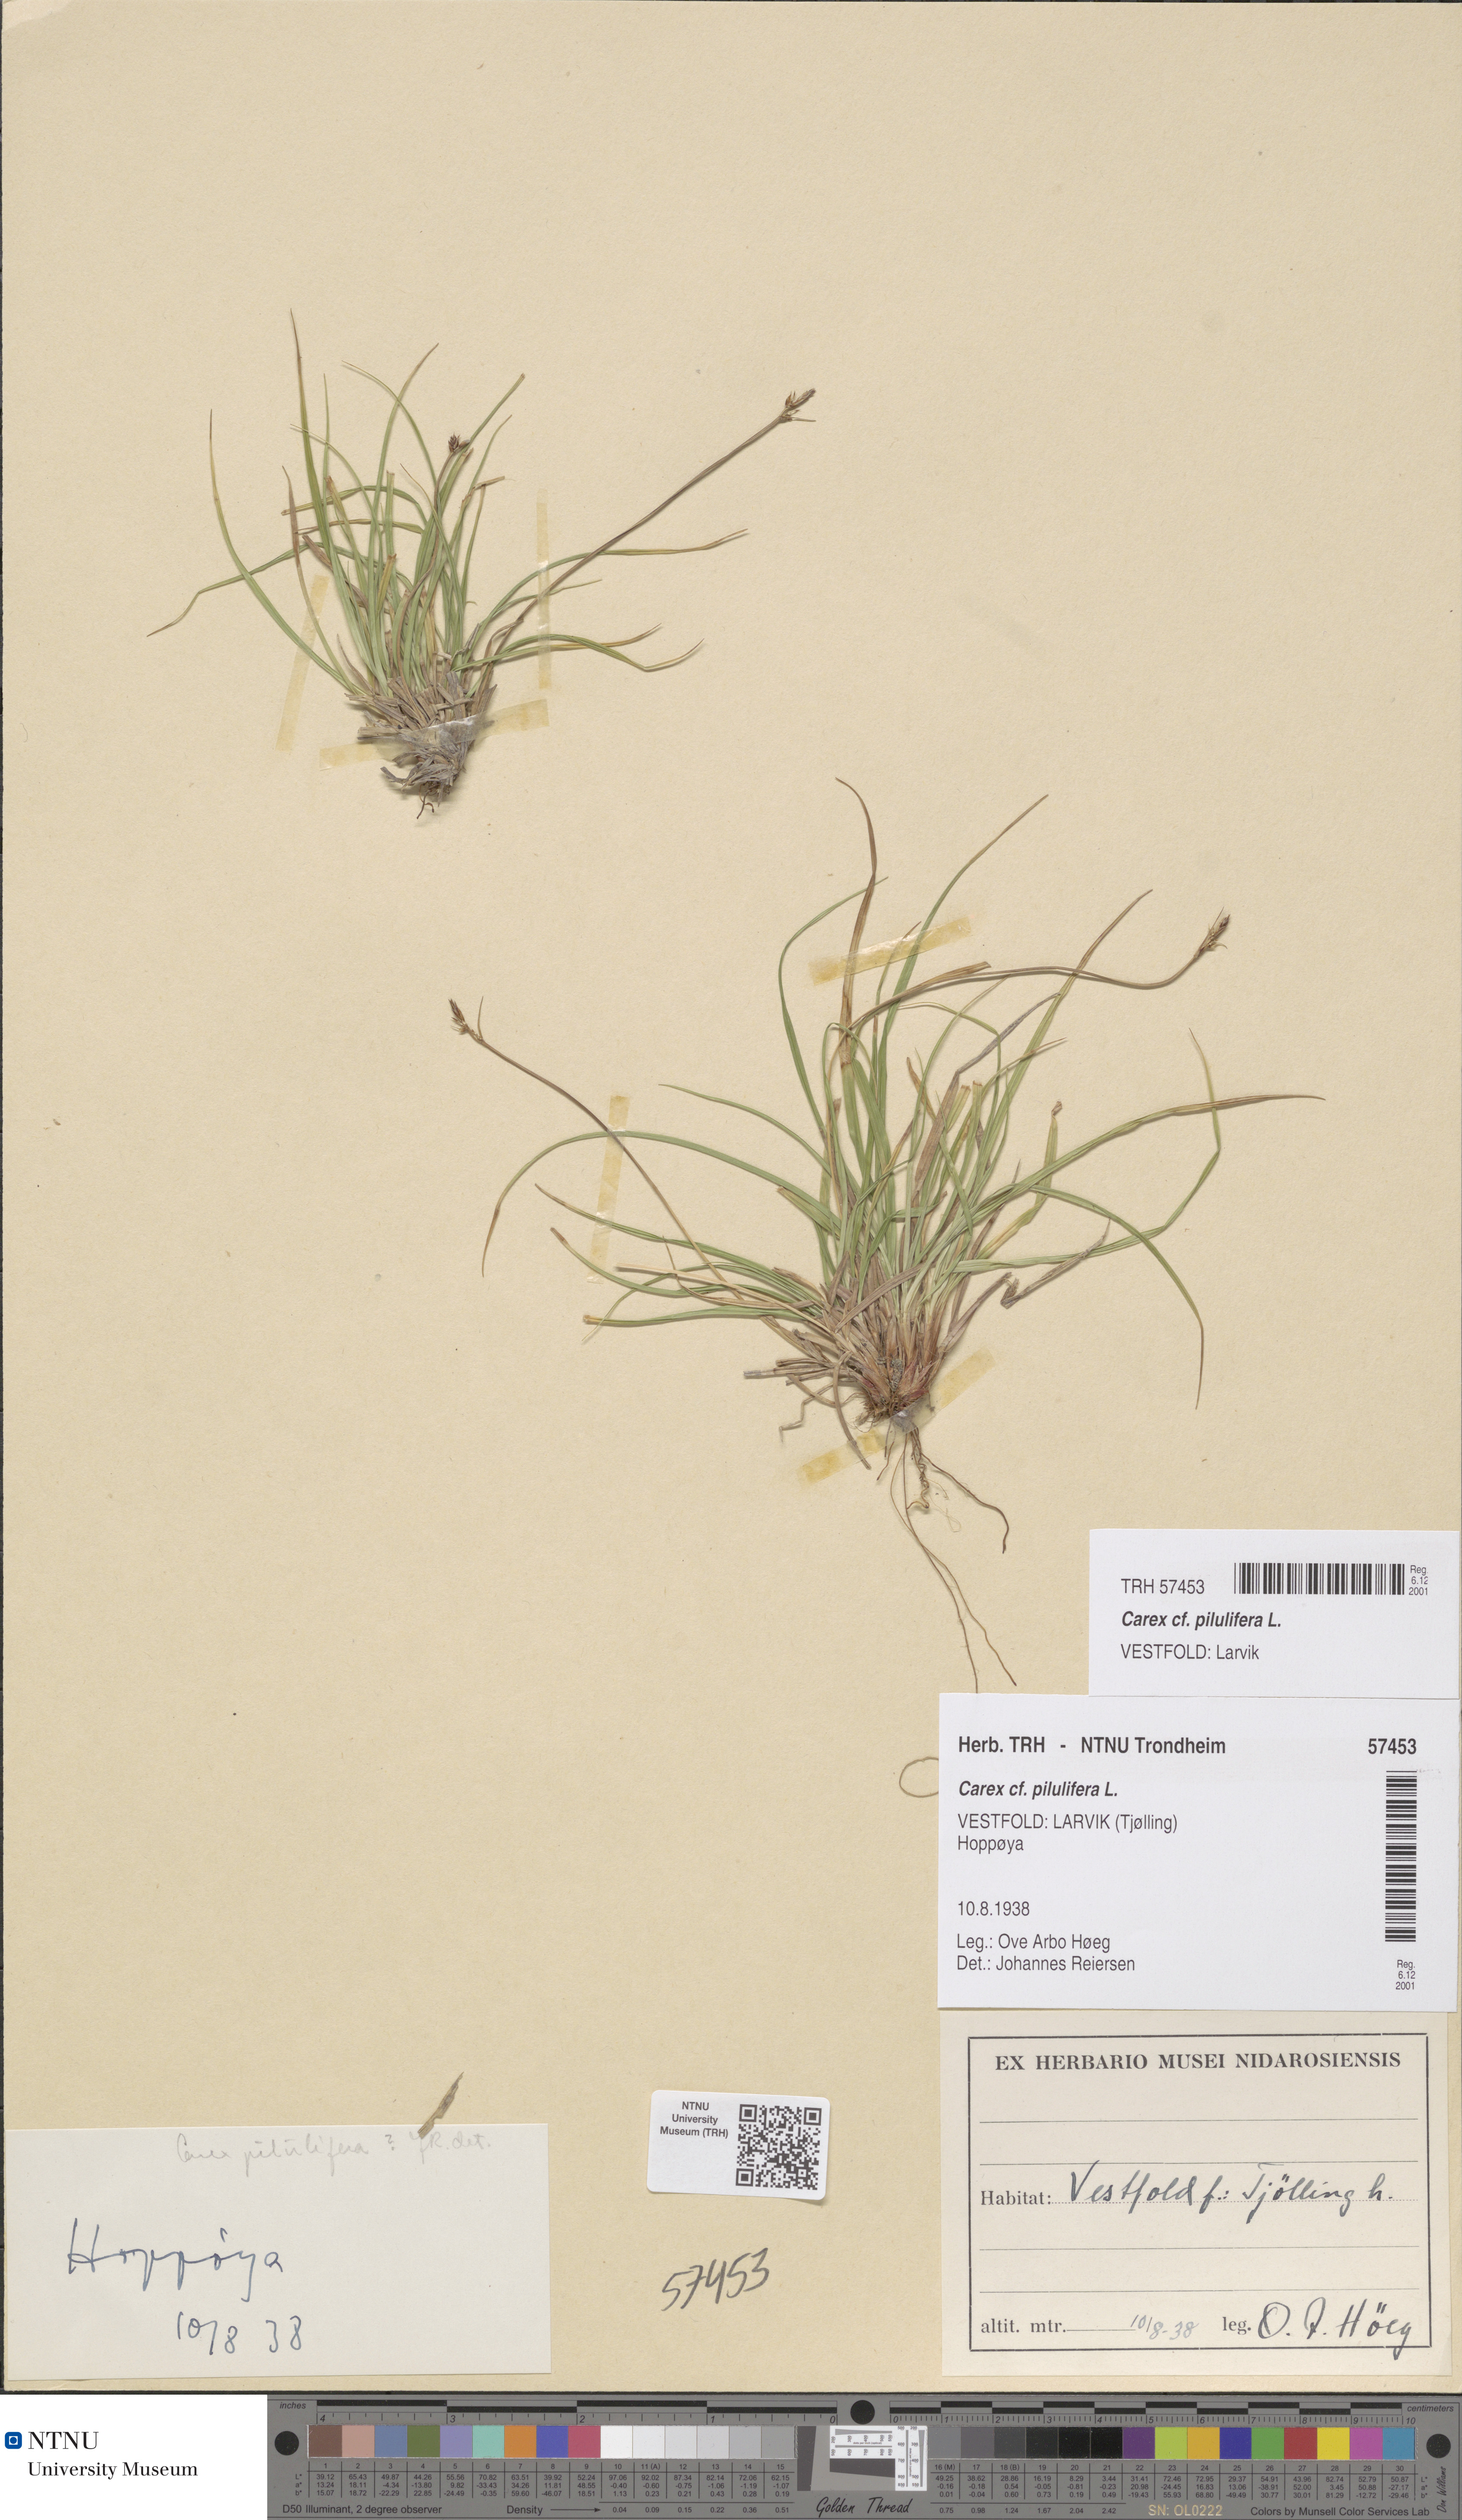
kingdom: Plantae
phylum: Tracheophyta
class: Liliopsida
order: Poales
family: Cyperaceae
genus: Carex
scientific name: Carex pilulifera
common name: Pill sedge
